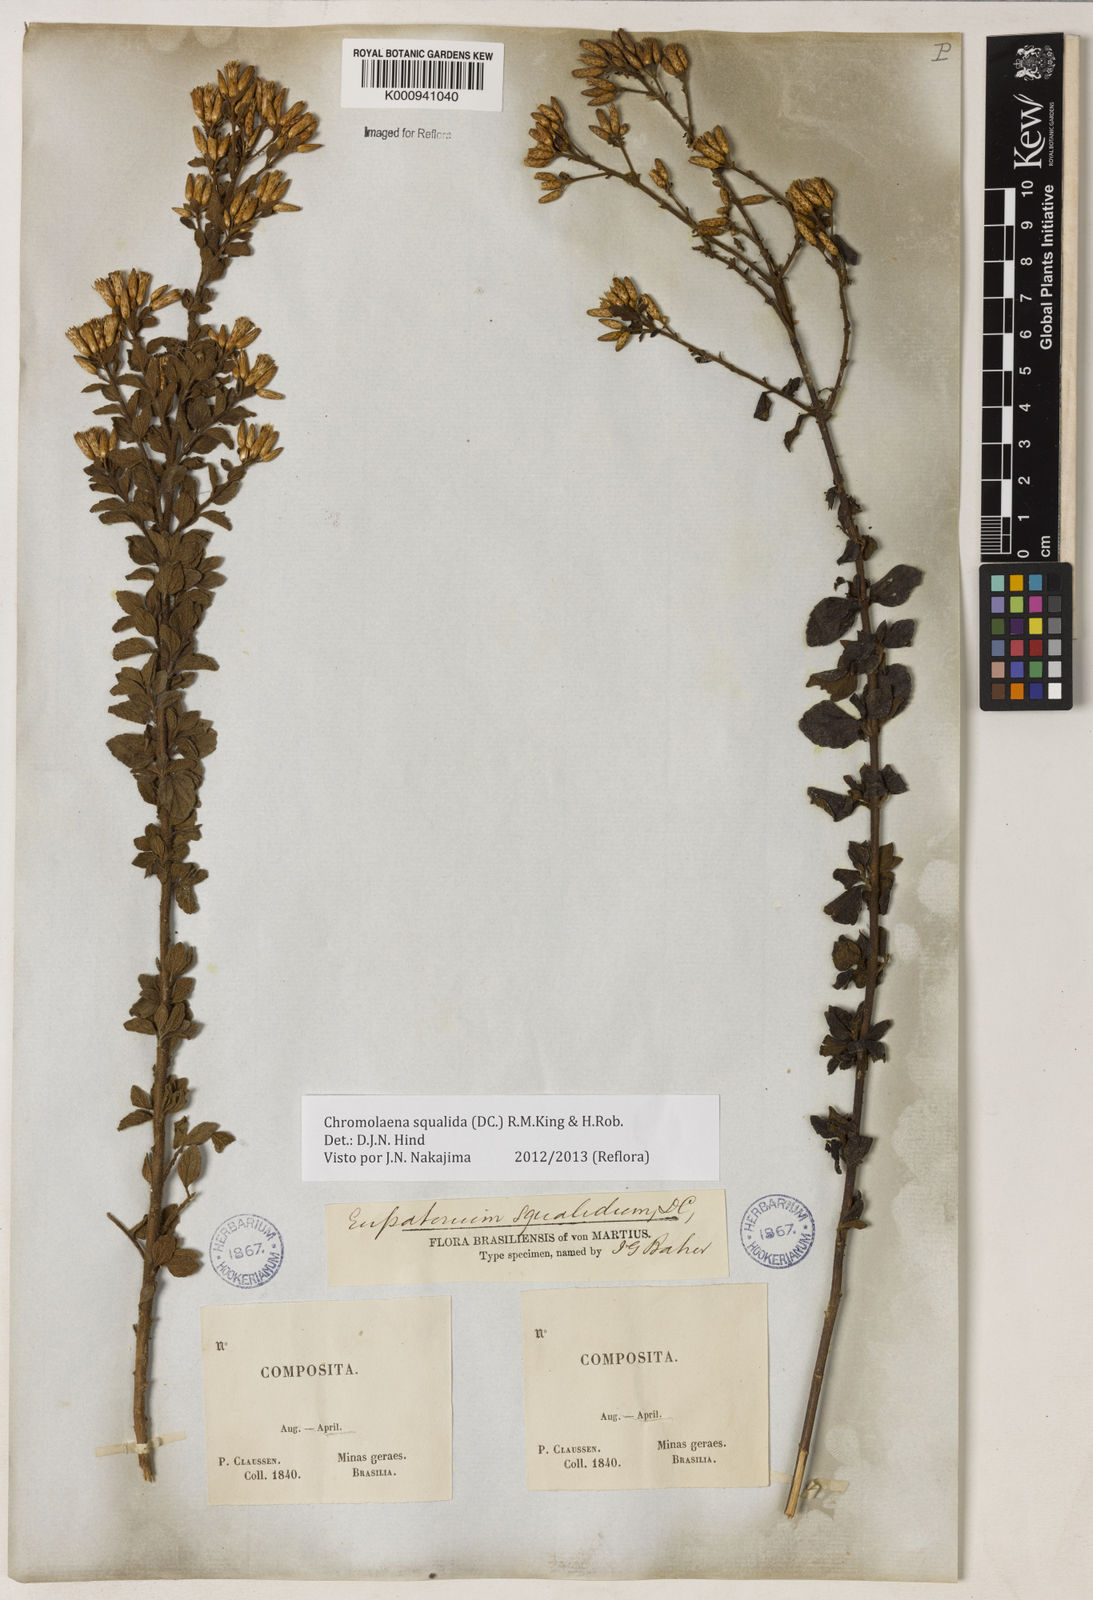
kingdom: Plantae
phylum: Tracheophyta
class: Magnoliopsida
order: Asterales
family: Asteraceae
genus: Chromolaena
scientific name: Chromolaena squalida
